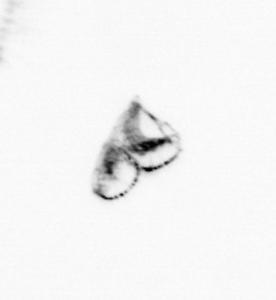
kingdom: Chromista
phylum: Myzozoa
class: Dinophyceae
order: Noctilucales
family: Noctilucaceae
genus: Noctiluca
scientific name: Noctiluca scintillans
